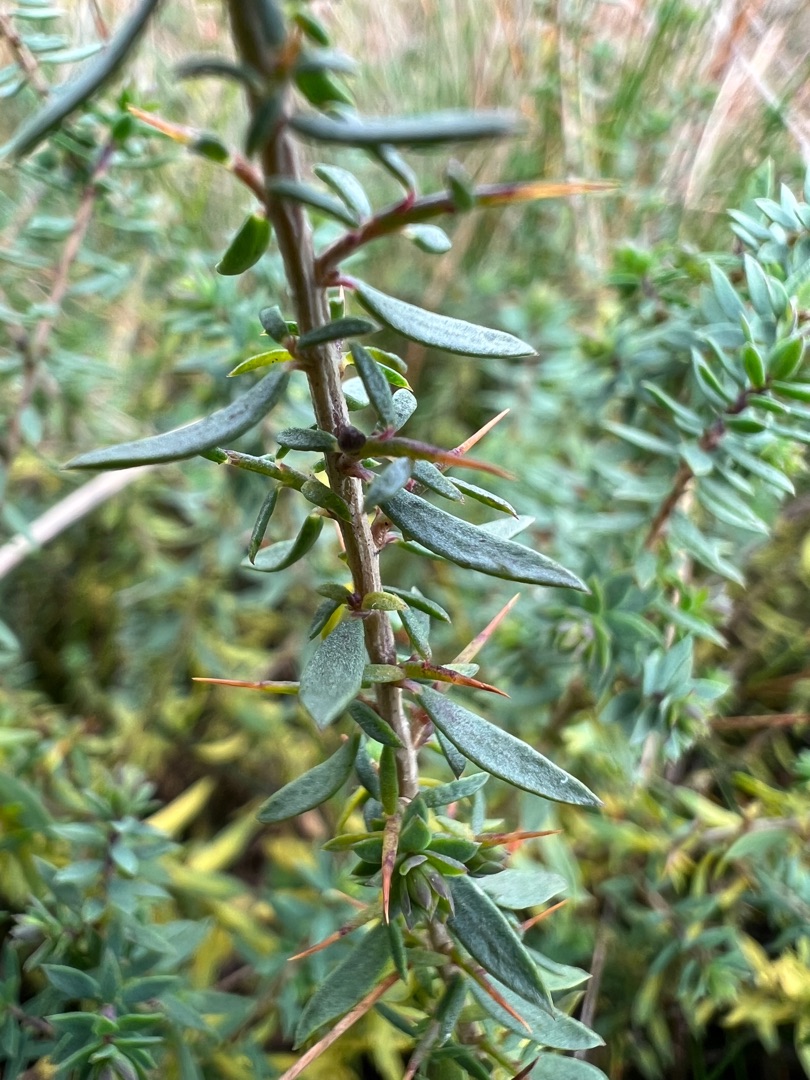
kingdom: Plantae
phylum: Tracheophyta
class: Magnoliopsida
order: Fabales
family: Fabaceae
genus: Genista
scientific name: Genista anglica
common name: Engelsk visse
